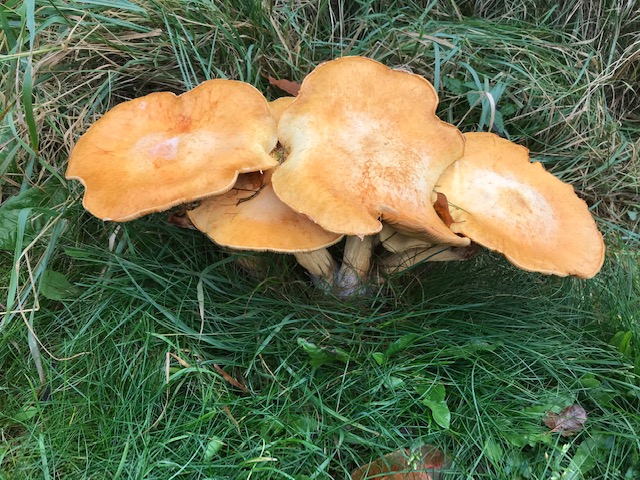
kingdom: Fungi
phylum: Basidiomycota
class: Agaricomycetes
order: Agaricales
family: Tricholomataceae
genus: Phaeolepiota
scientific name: Phaeolepiota aurea
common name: gyldenhat
